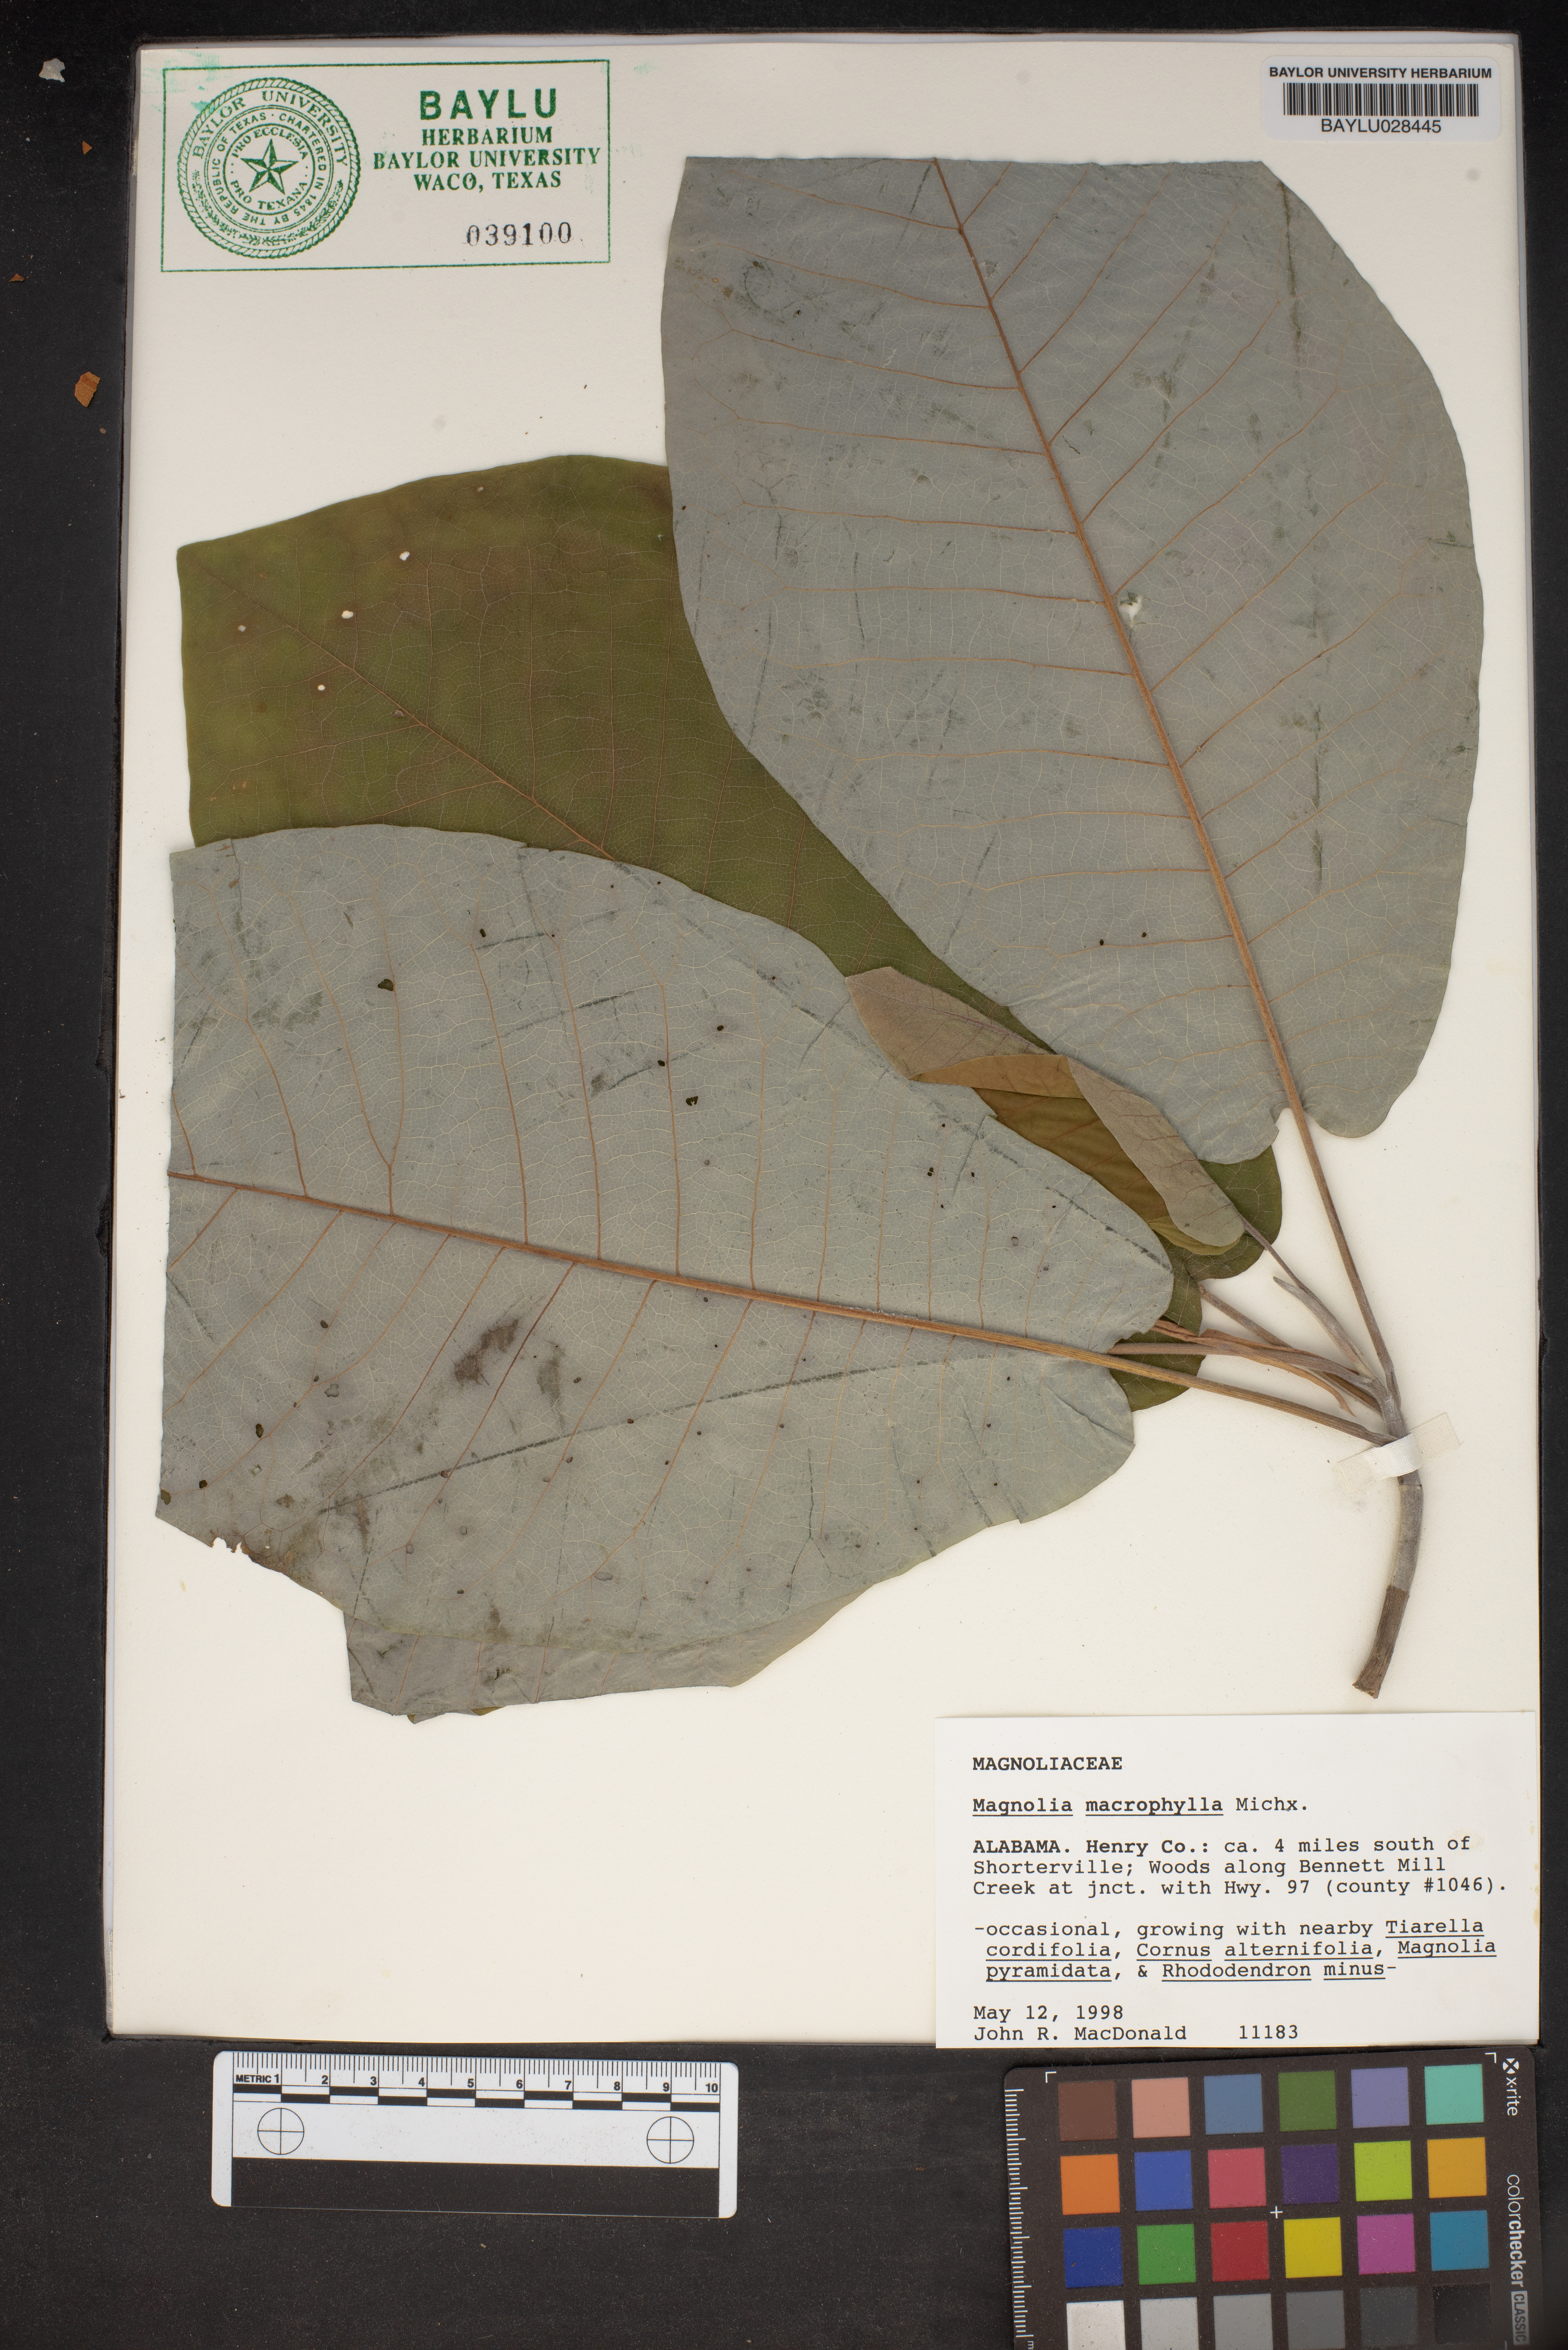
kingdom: Plantae
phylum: Tracheophyta
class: Magnoliopsida
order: Magnoliales
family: Magnoliaceae
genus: Magnolia
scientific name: Magnolia macrophylla
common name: Big-leaf magnolia
